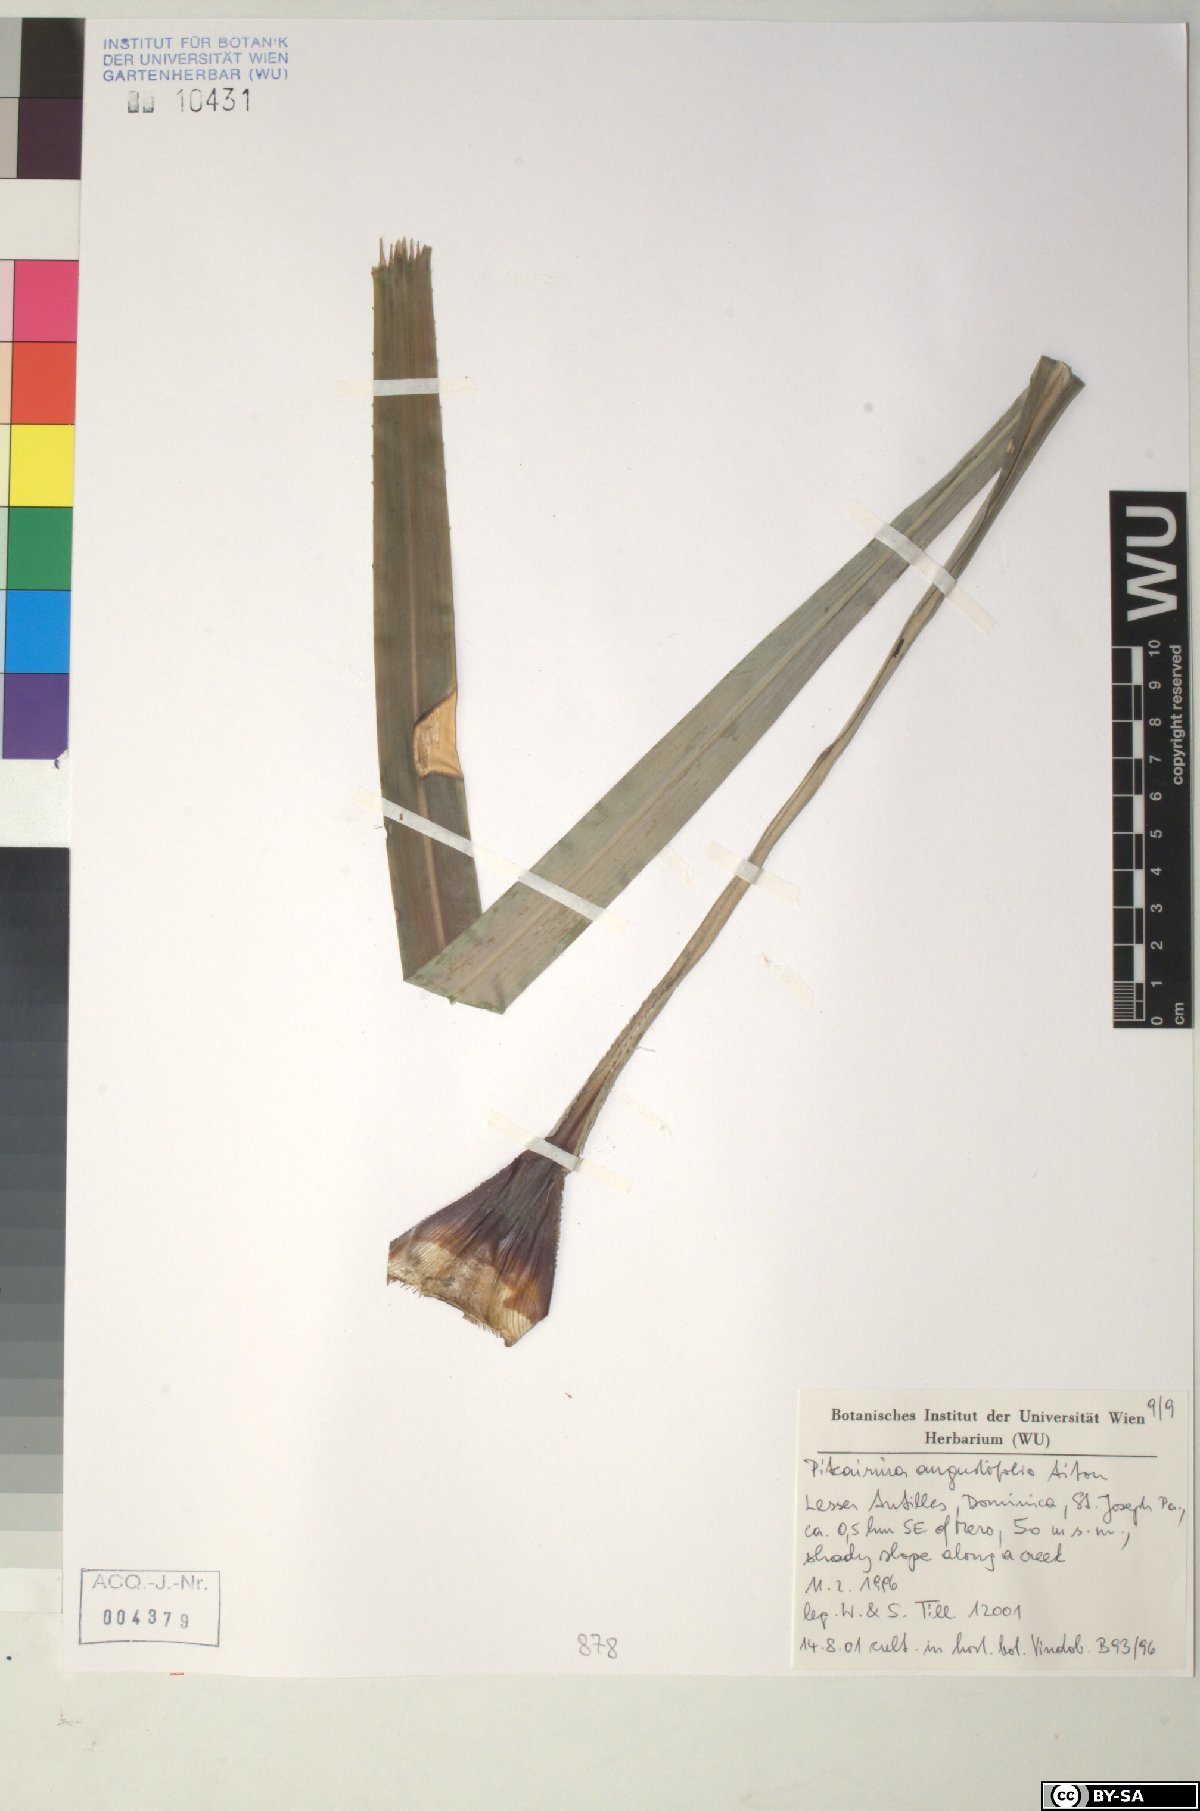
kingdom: Plantae
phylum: Tracheophyta
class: Liliopsida
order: Poales
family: Bromeliaceae
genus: Pitcairnia
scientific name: Pitcairnia angustifolia
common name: Clapper
